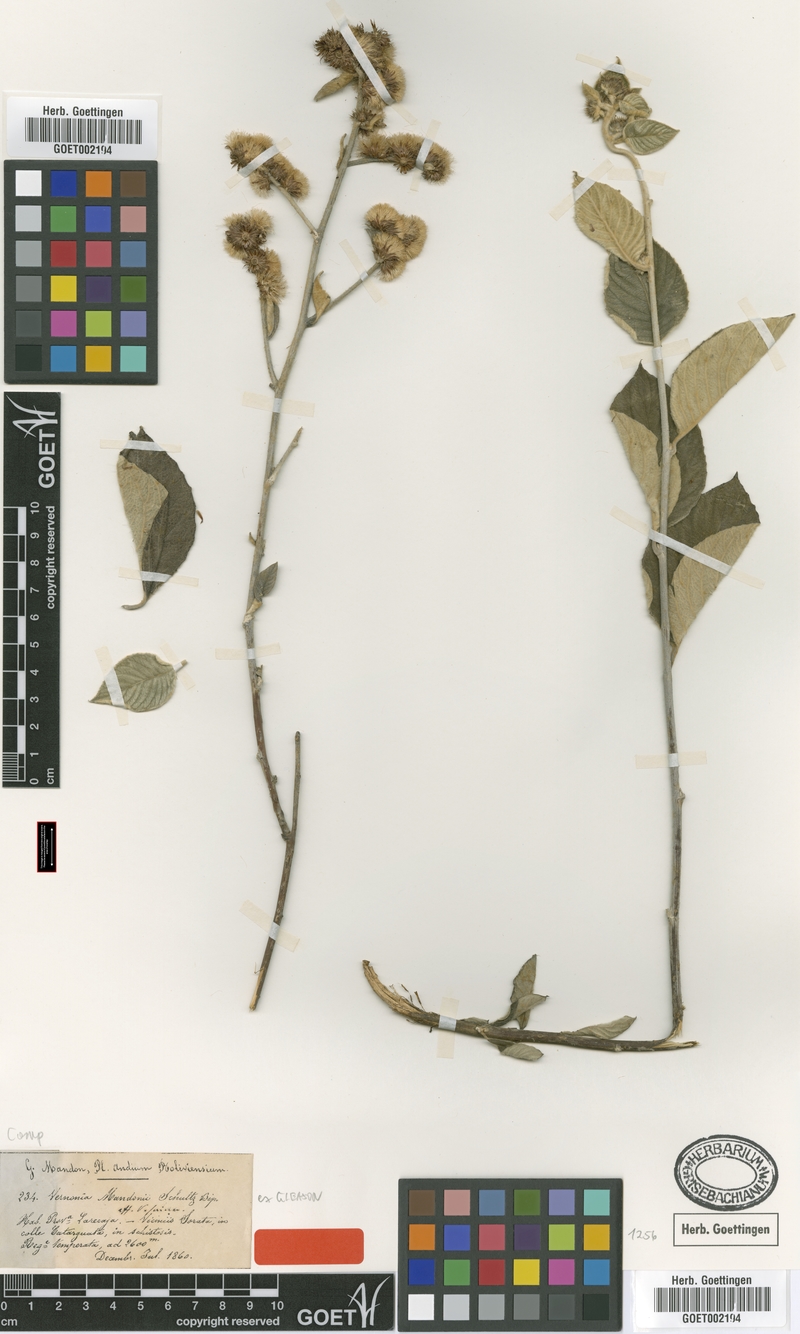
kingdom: Plantae
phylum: Tracheophyta
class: Magnoliopsida
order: Asterales
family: Asteraceae
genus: Lepidaploa
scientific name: Lepidaploa mandonii
